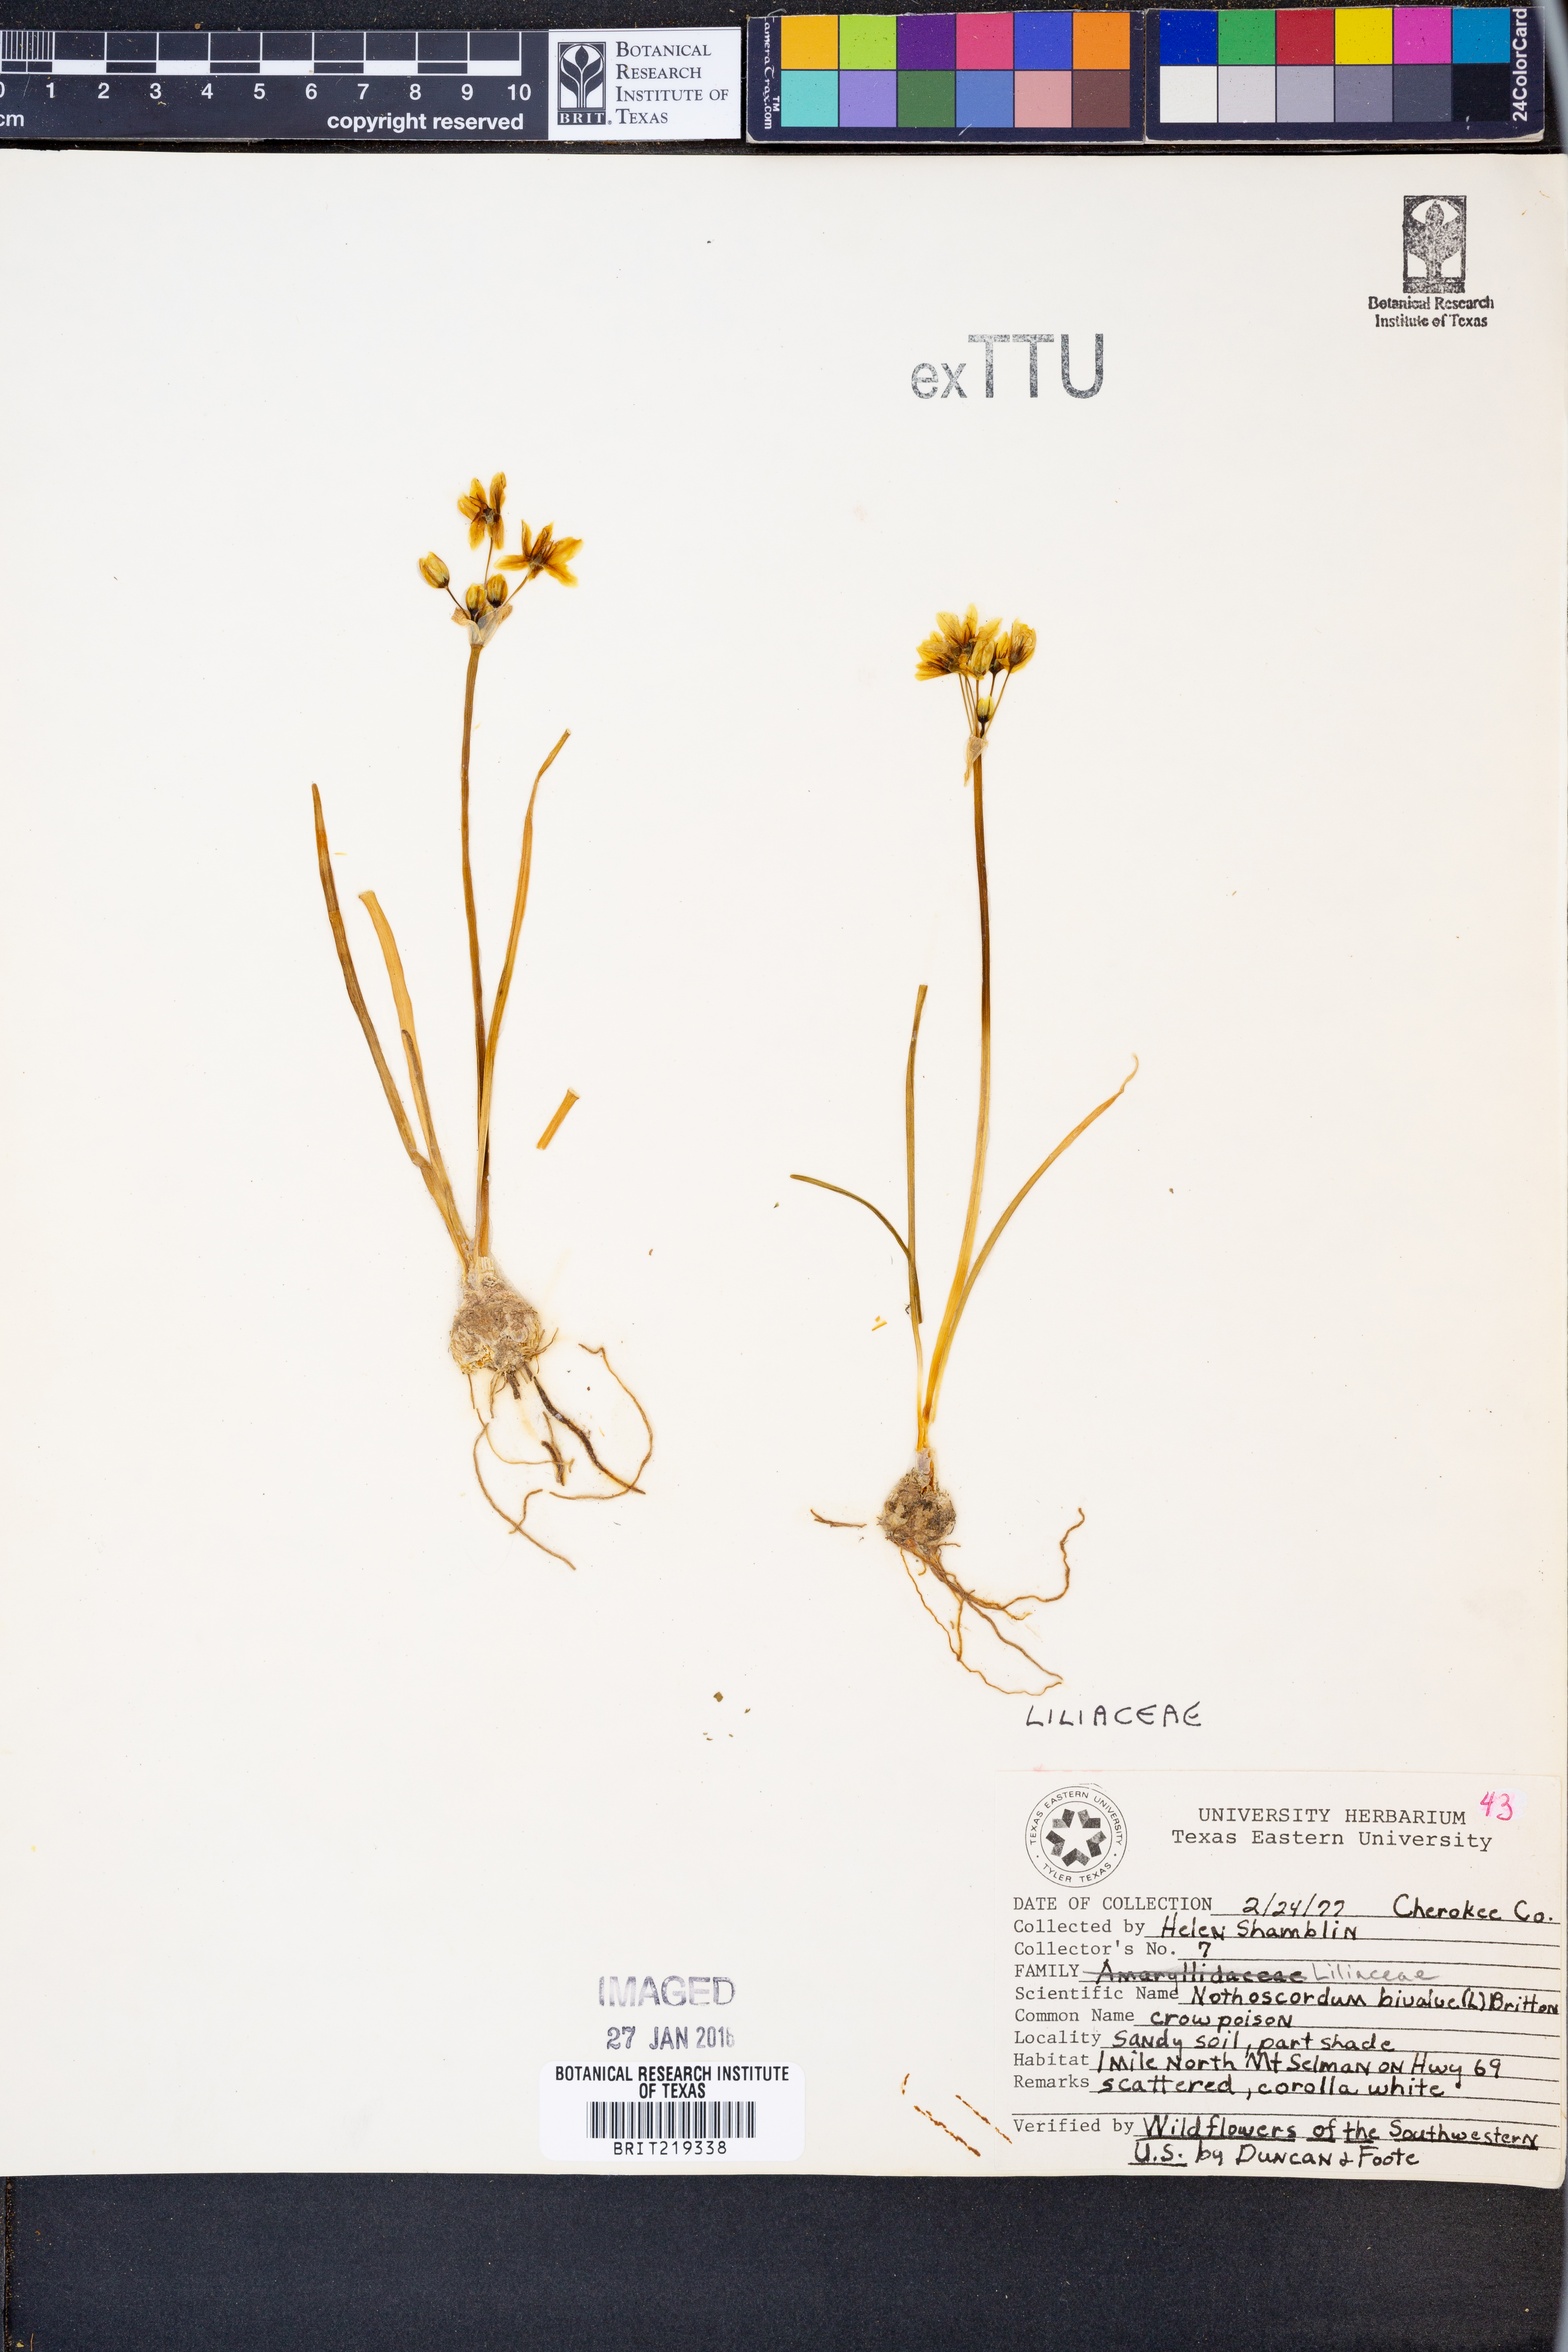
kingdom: Plantae
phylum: Tracheophyta
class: Liliopsida
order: Asparagales
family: Amaryllidaceae
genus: Nothoscordum
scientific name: Nothoscordum bivalve
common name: Crow-poison
